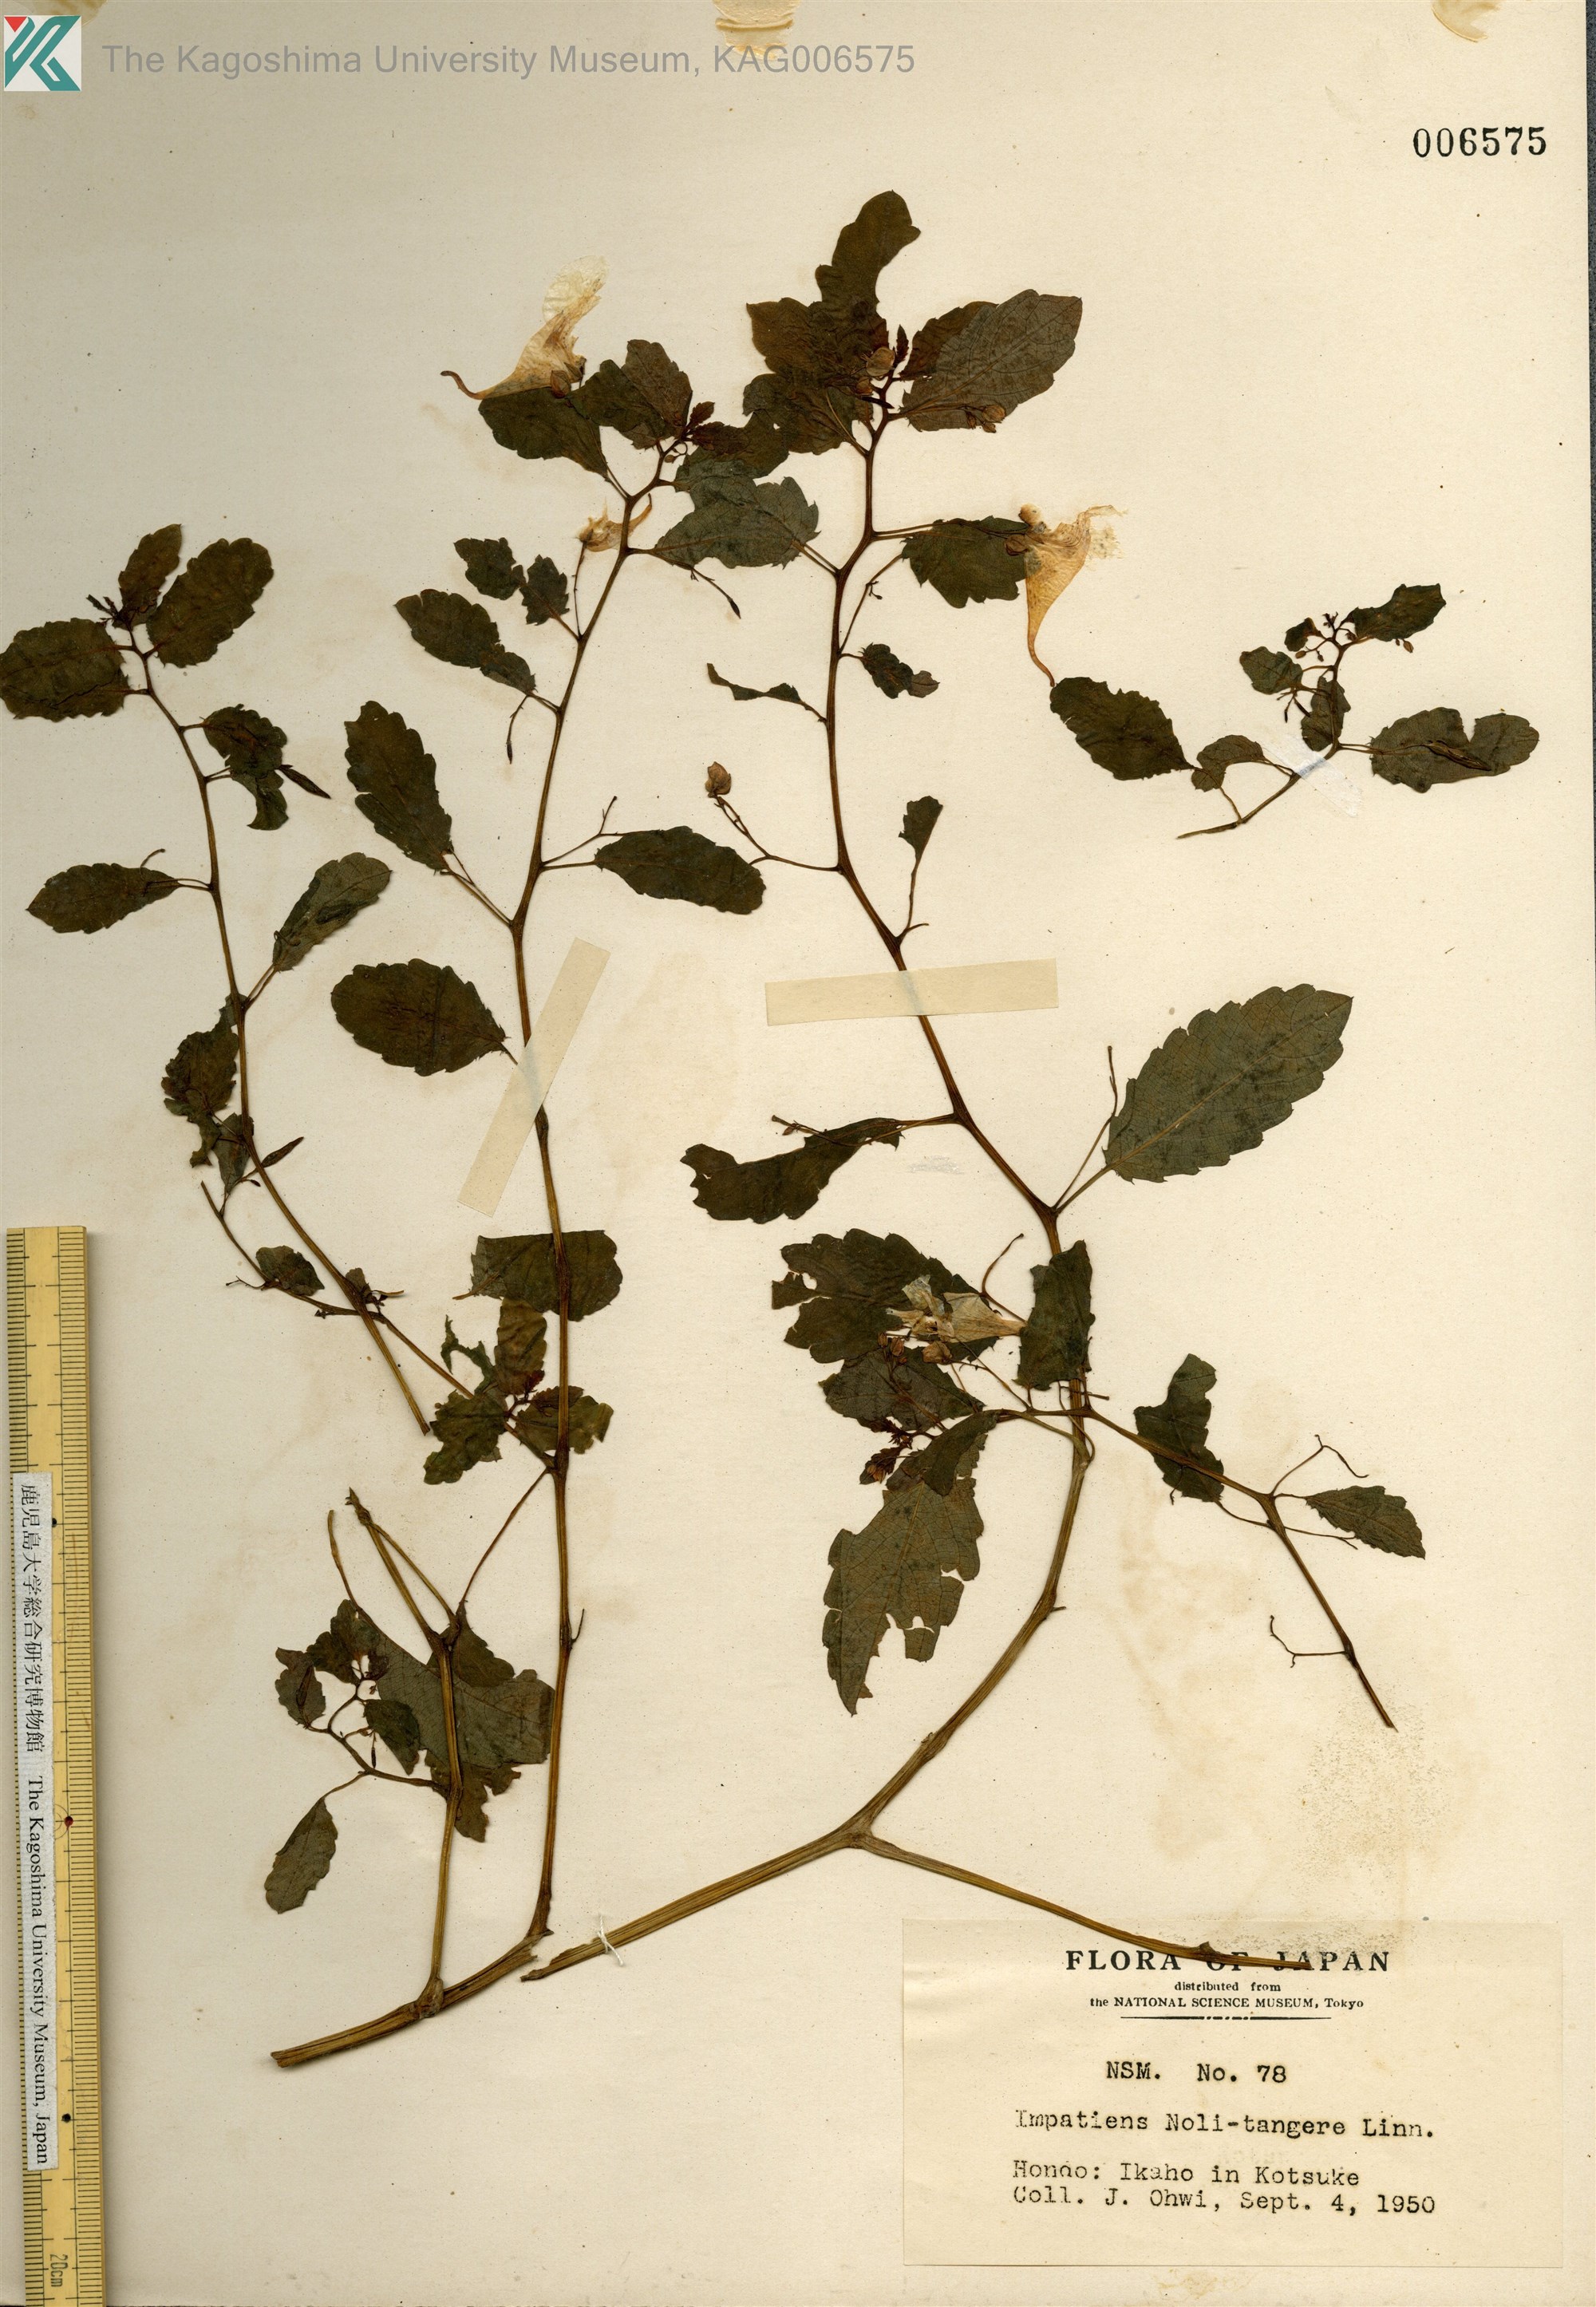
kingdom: Plantae
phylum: Tracheophyta
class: Magnoliopsida
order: Ericales
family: Balsaminaceae
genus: Impatiens
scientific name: Impatiens noli-tangere
